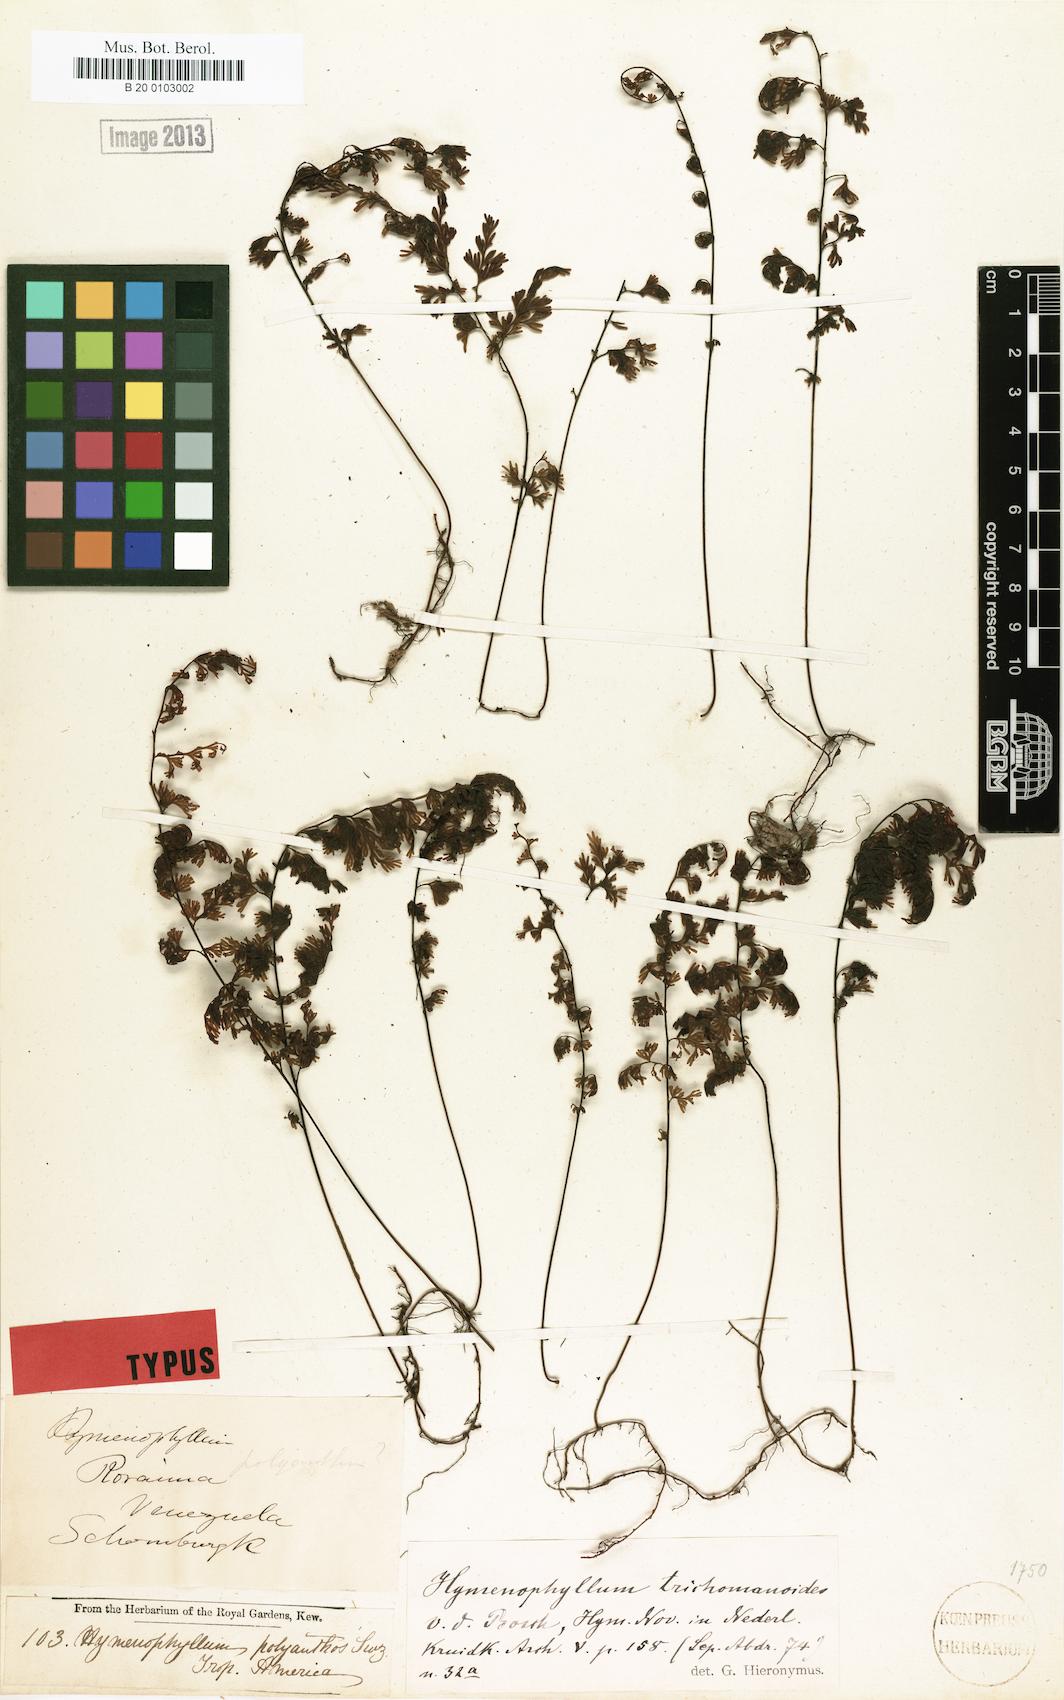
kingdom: Plantae
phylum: Tracheophyta
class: Polypodiopsida
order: Hymenophyllales
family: Hymenophyllaceae
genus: Hymenophyllum
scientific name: Hymenophyllum trichomanoides
